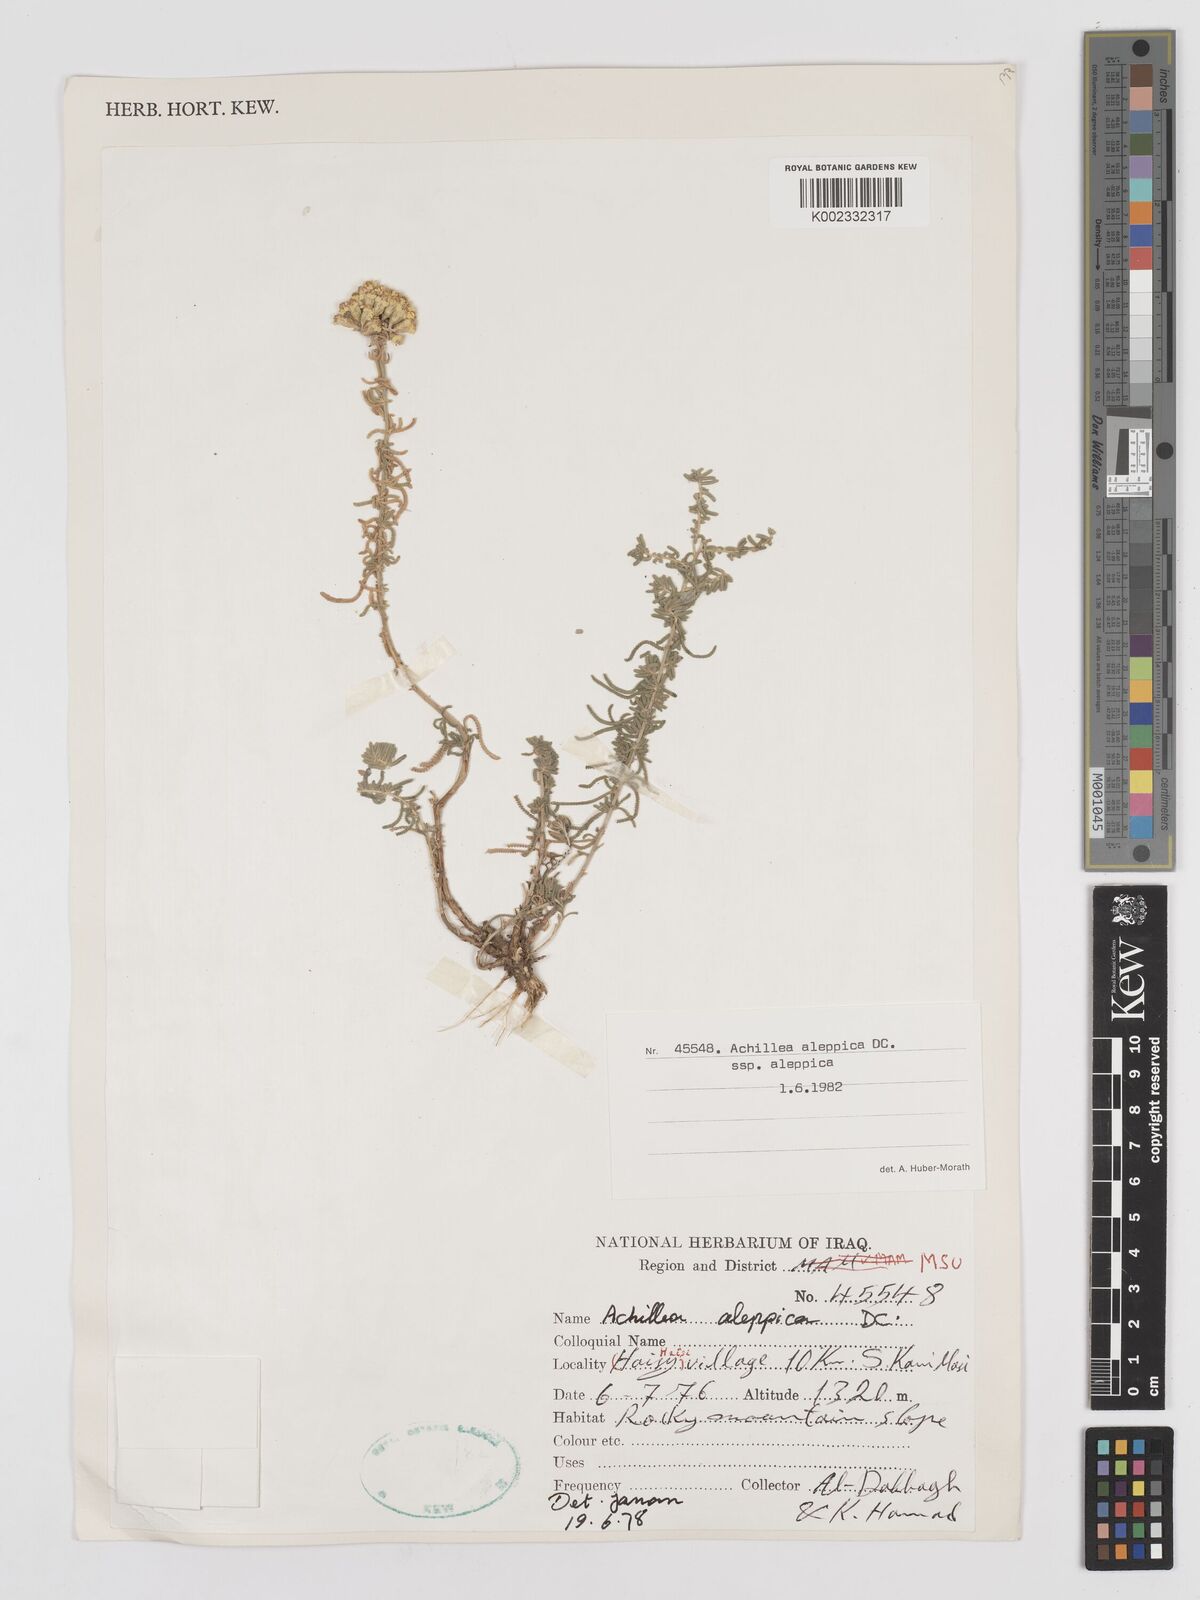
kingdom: Plantae
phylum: Tracheophyta
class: Magnoliopsida
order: Asterales
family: Asteraceae
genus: Achillea
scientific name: Achillea aleppica
